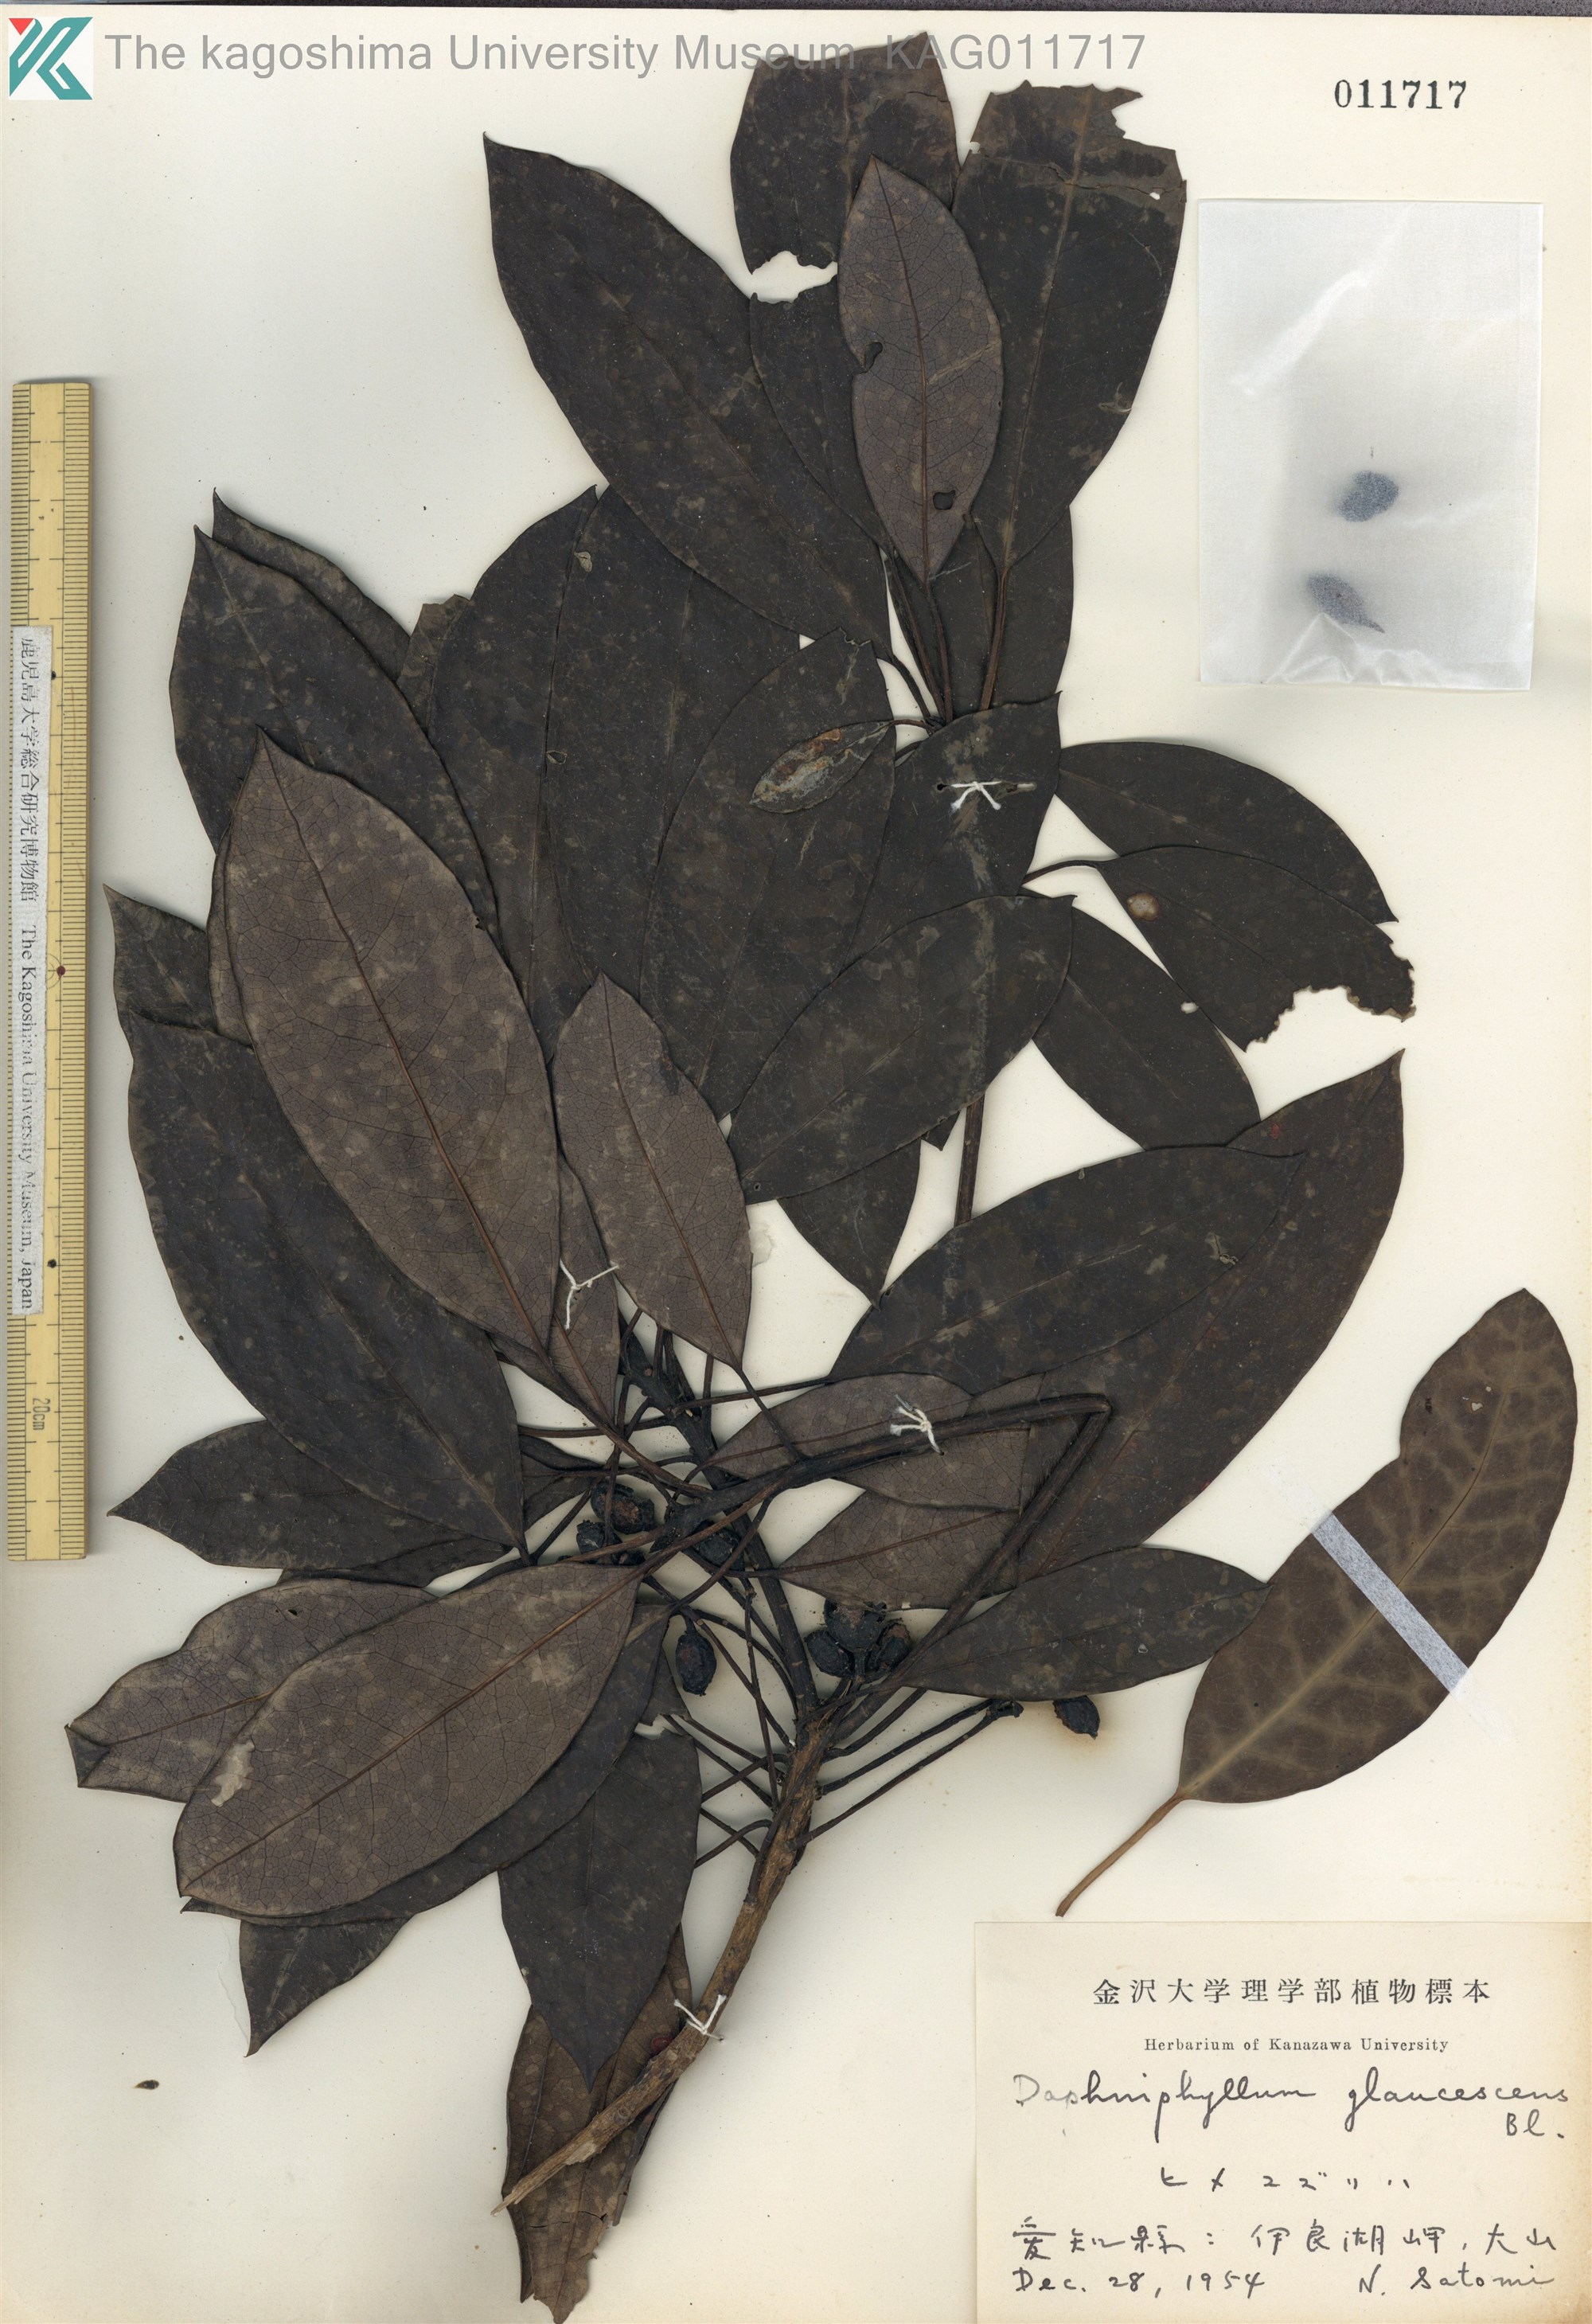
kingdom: Plantae
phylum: Tracheophyta
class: Magnoliopsida
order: Saxifragales
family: Daphniphyllaceae
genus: Daphniphyllum
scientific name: Daphniphyllum teijsmannii
